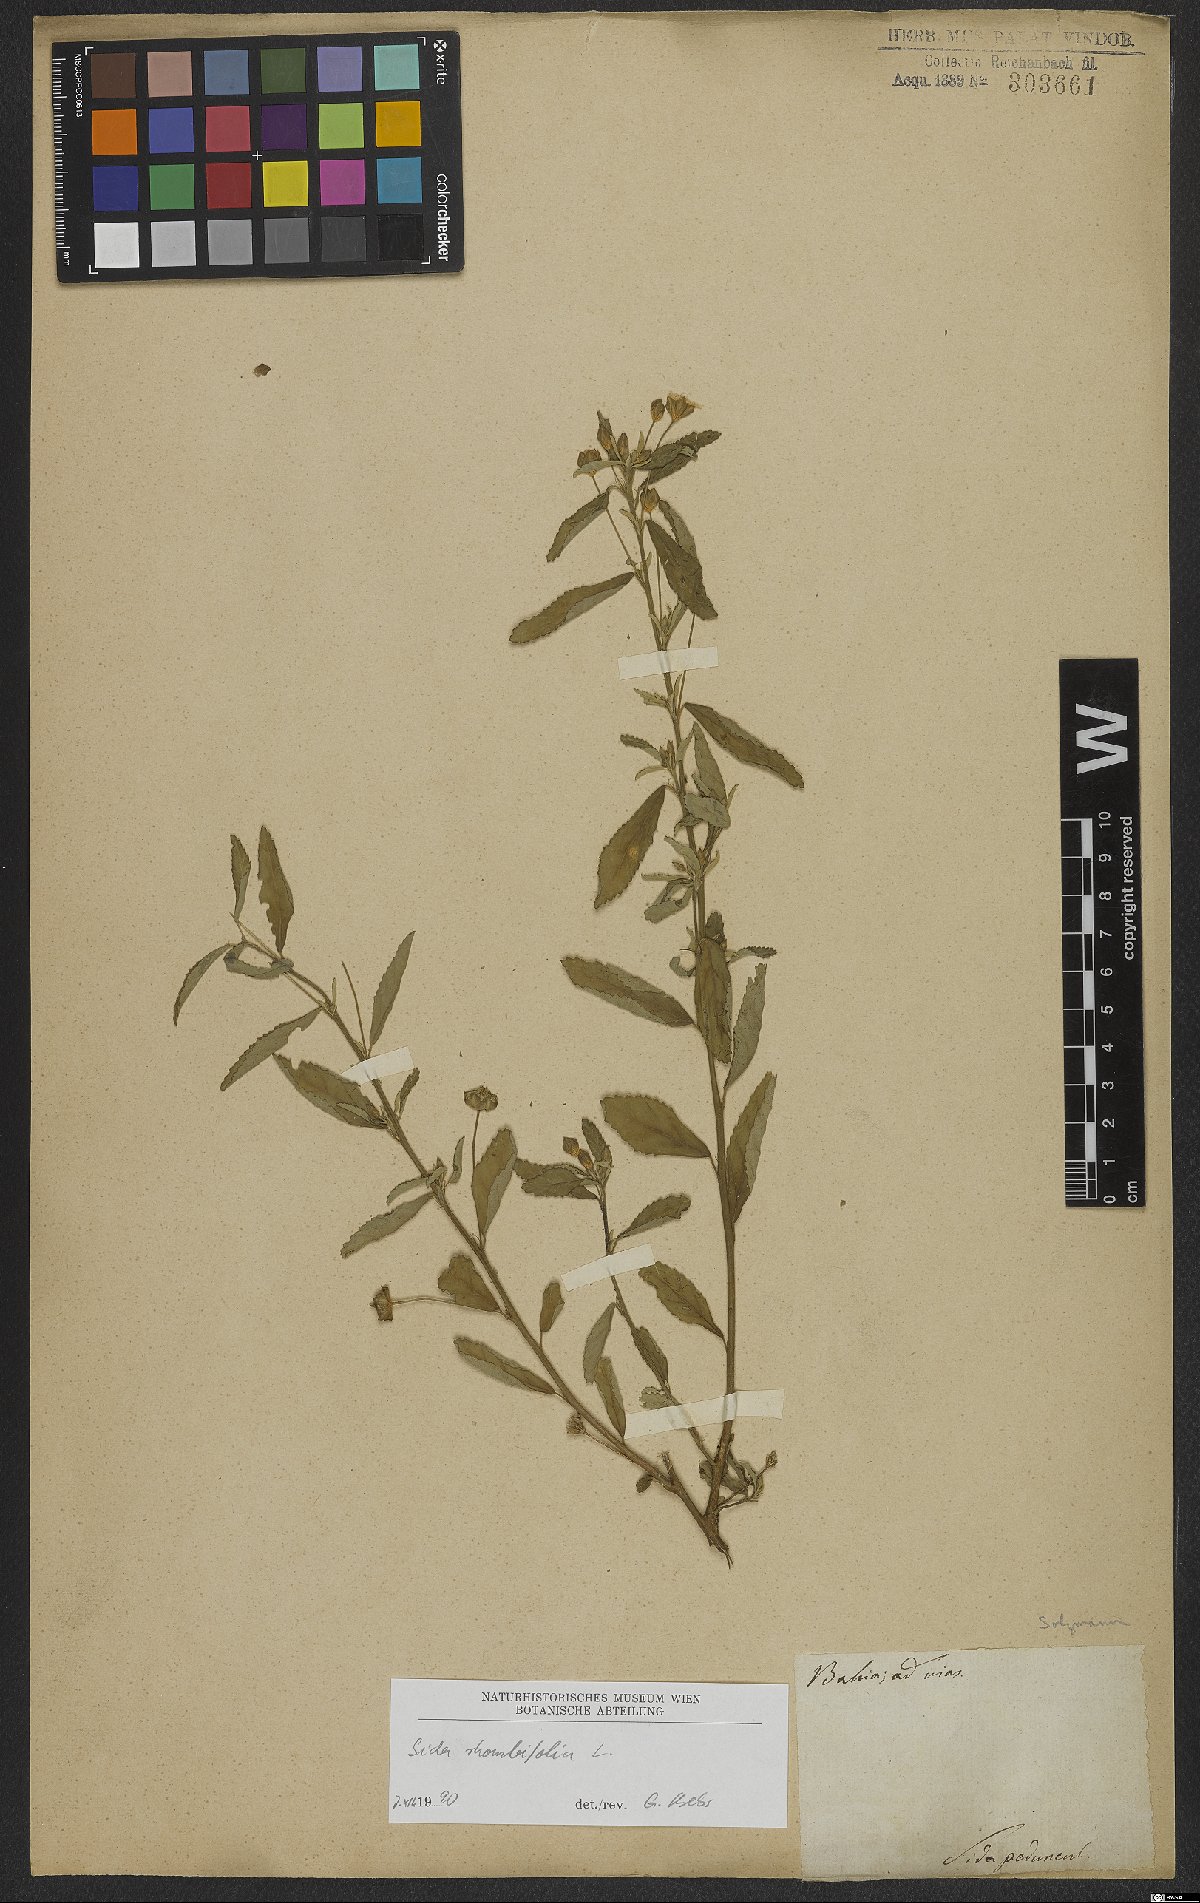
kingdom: Plantae
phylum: Tracheophyta
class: Magnoliopsida
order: Malvales
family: Malvaceae
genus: Sida
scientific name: Sida rhombifolia
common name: Queensland-hemp
